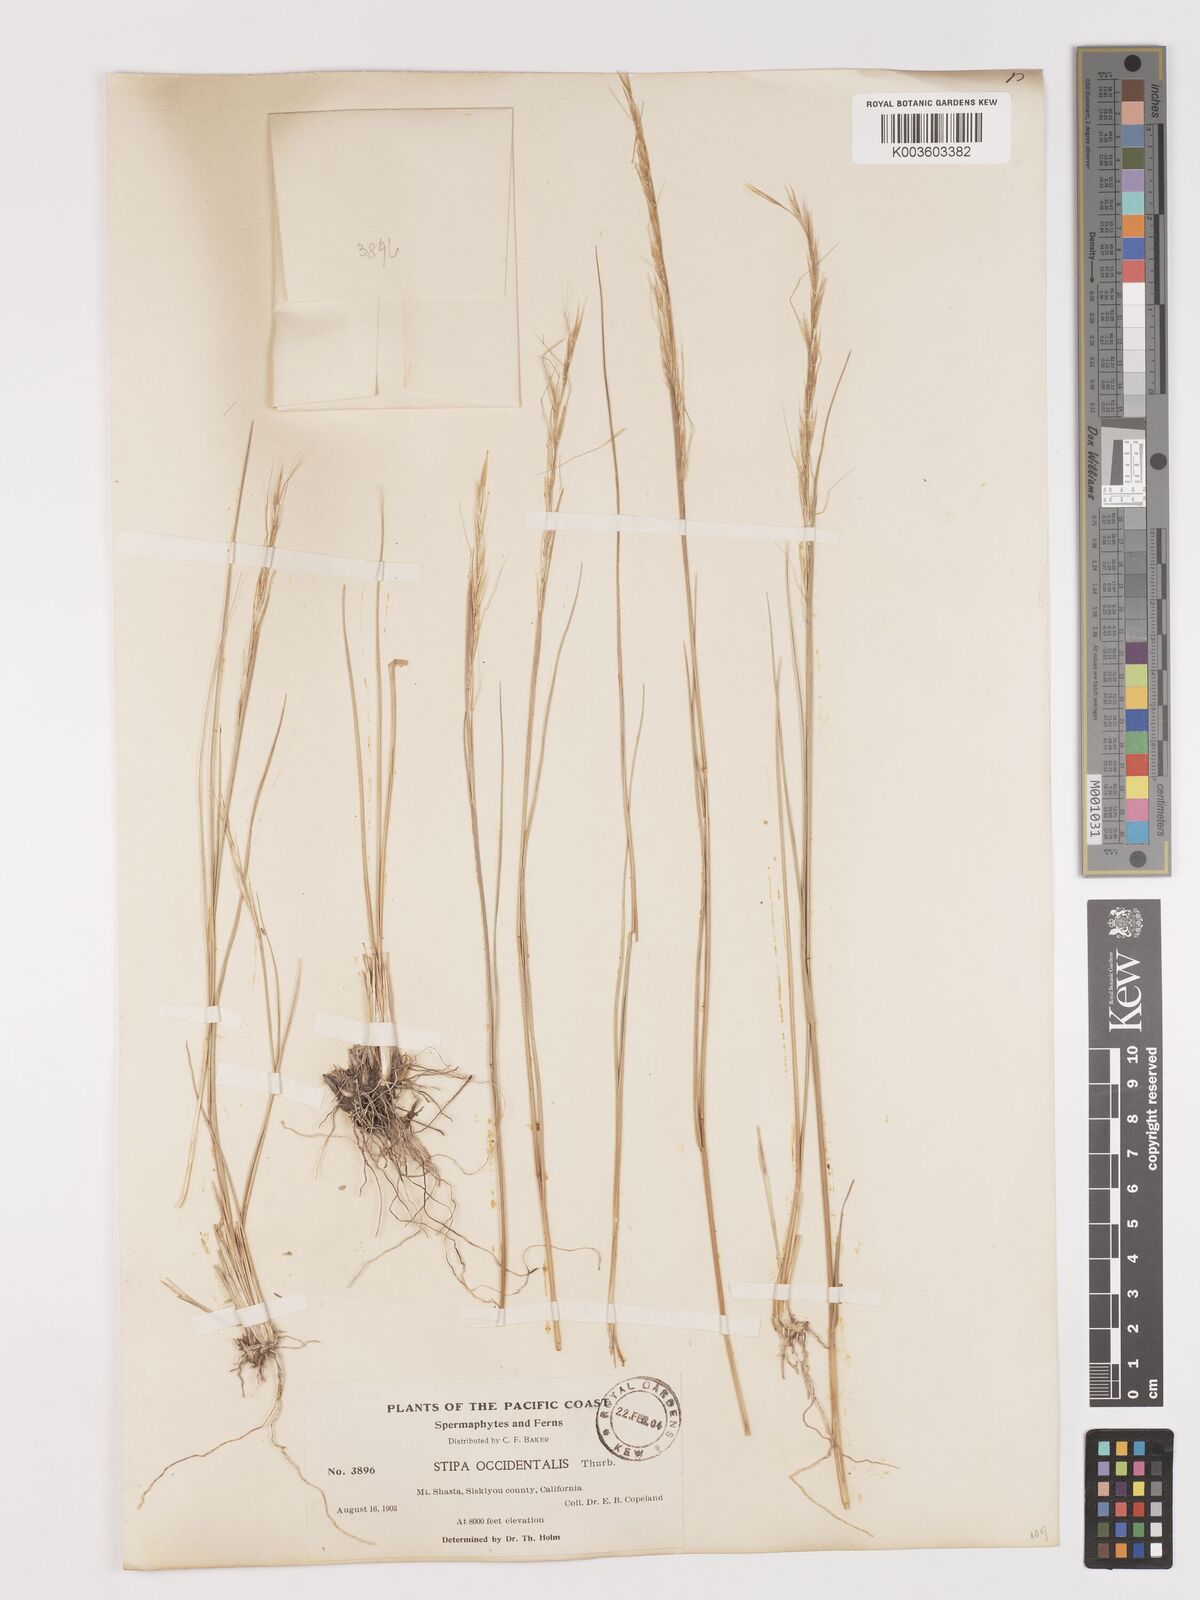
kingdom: Plantae
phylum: Tracheophyta
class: Liliopsida
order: Poales
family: Poaceae
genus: Eriocoma
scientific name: Eriocoma thurberiana
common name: Thurber's needlegrass
